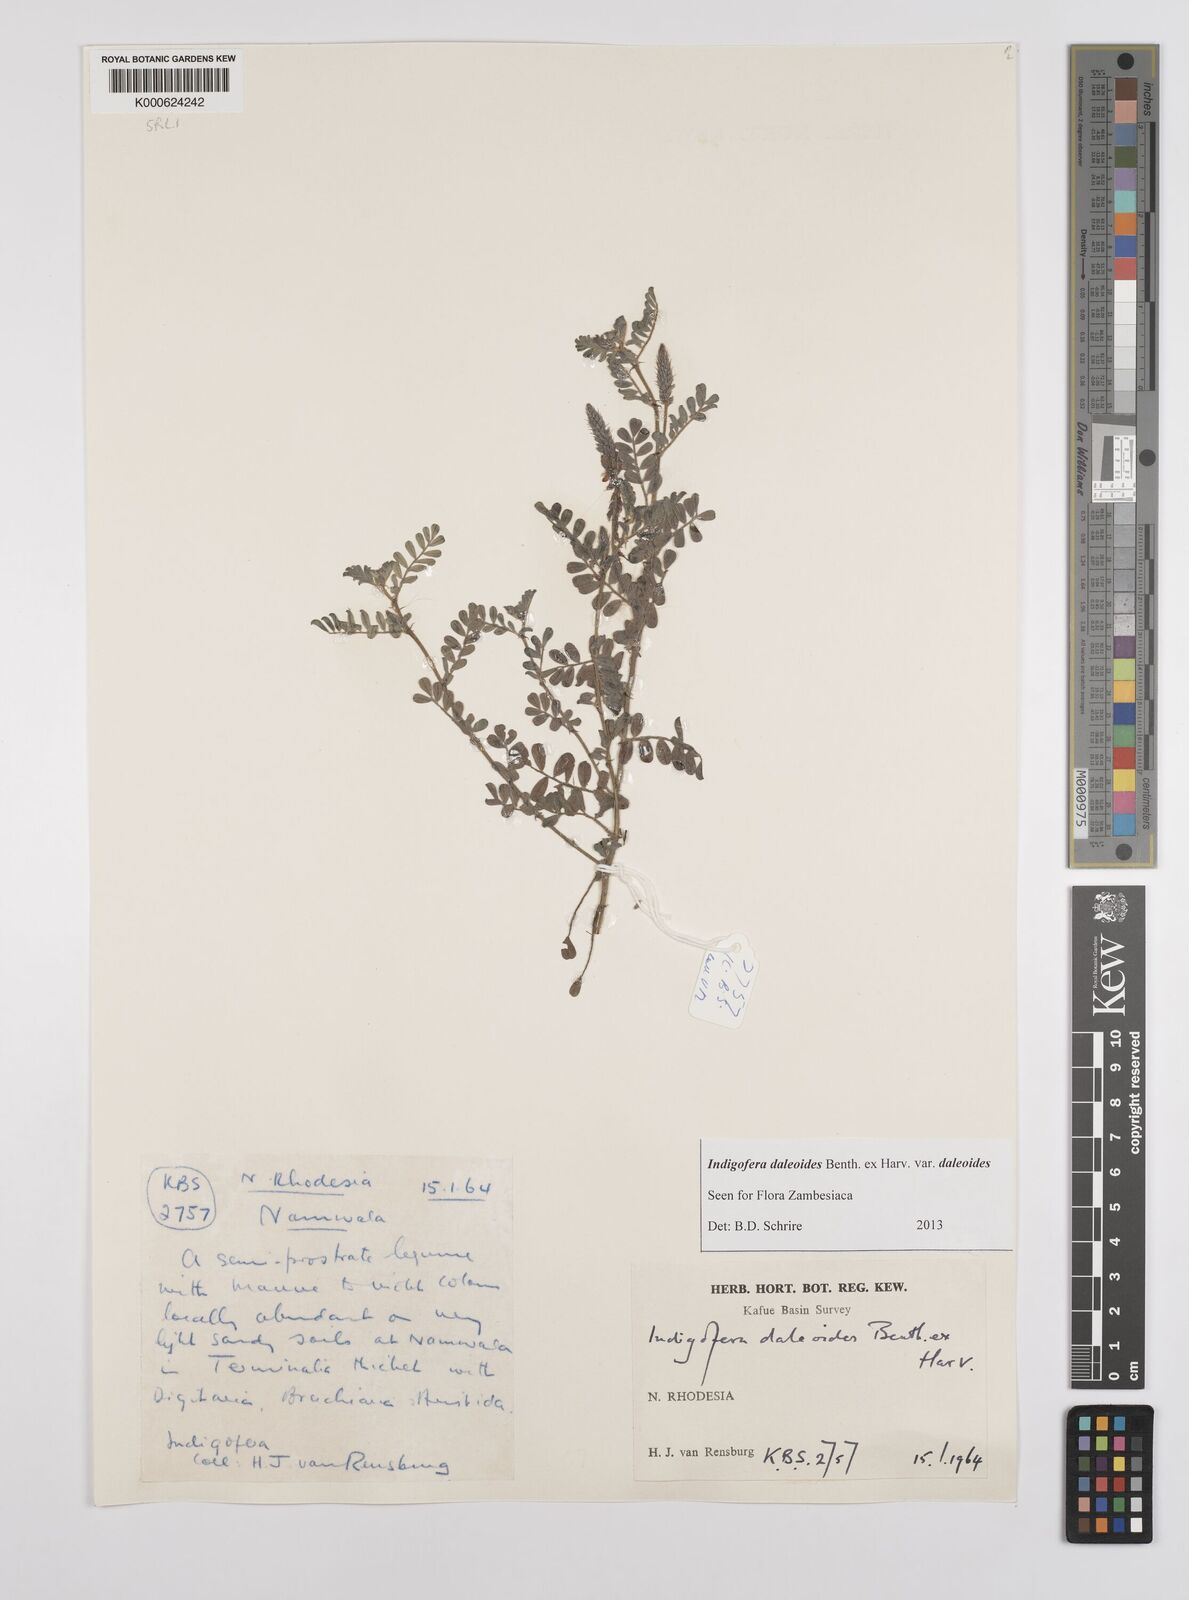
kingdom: Plantae
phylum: Tracheophyta
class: Magnoliopsida
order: Fabales
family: Fabaceae
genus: Indigofera
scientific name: Indigofera daleoides
